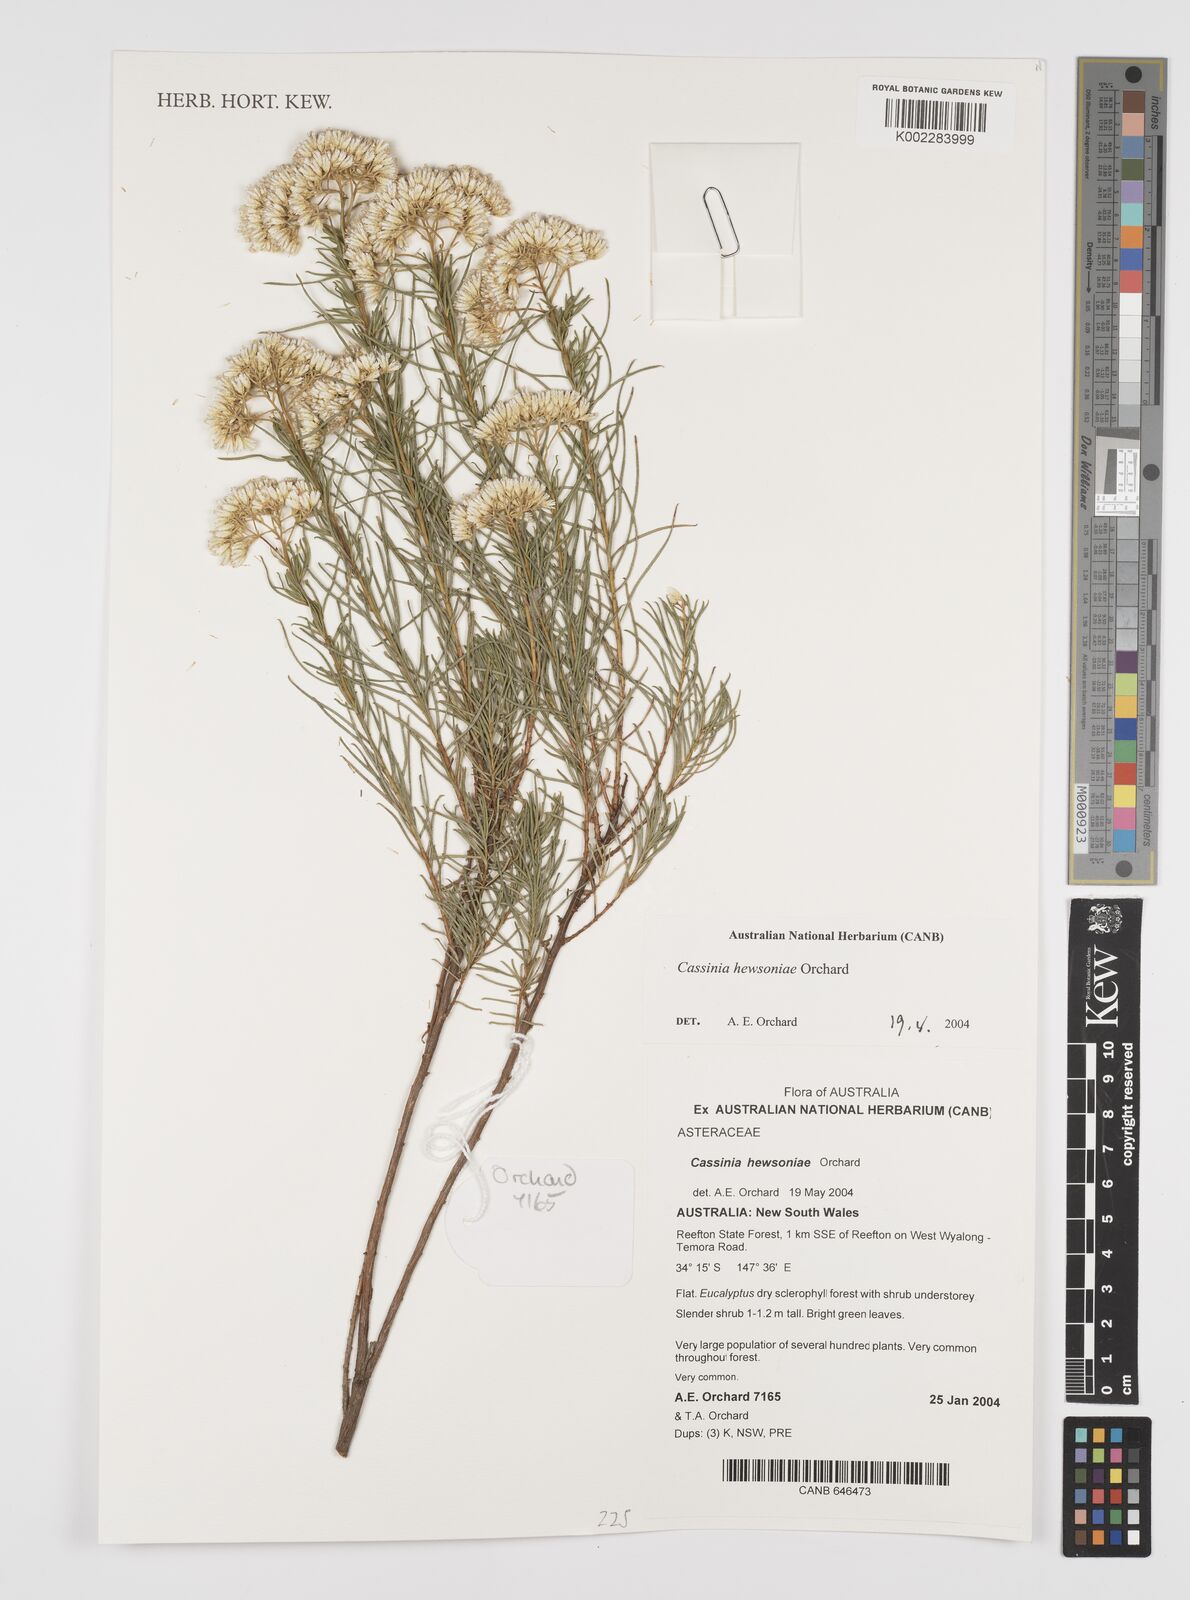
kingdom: Plantae
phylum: Tracheophyta
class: Magnoliopsida
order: Asterales
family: Asteraceae
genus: Cassinia
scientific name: Cassinia hewsoniae
